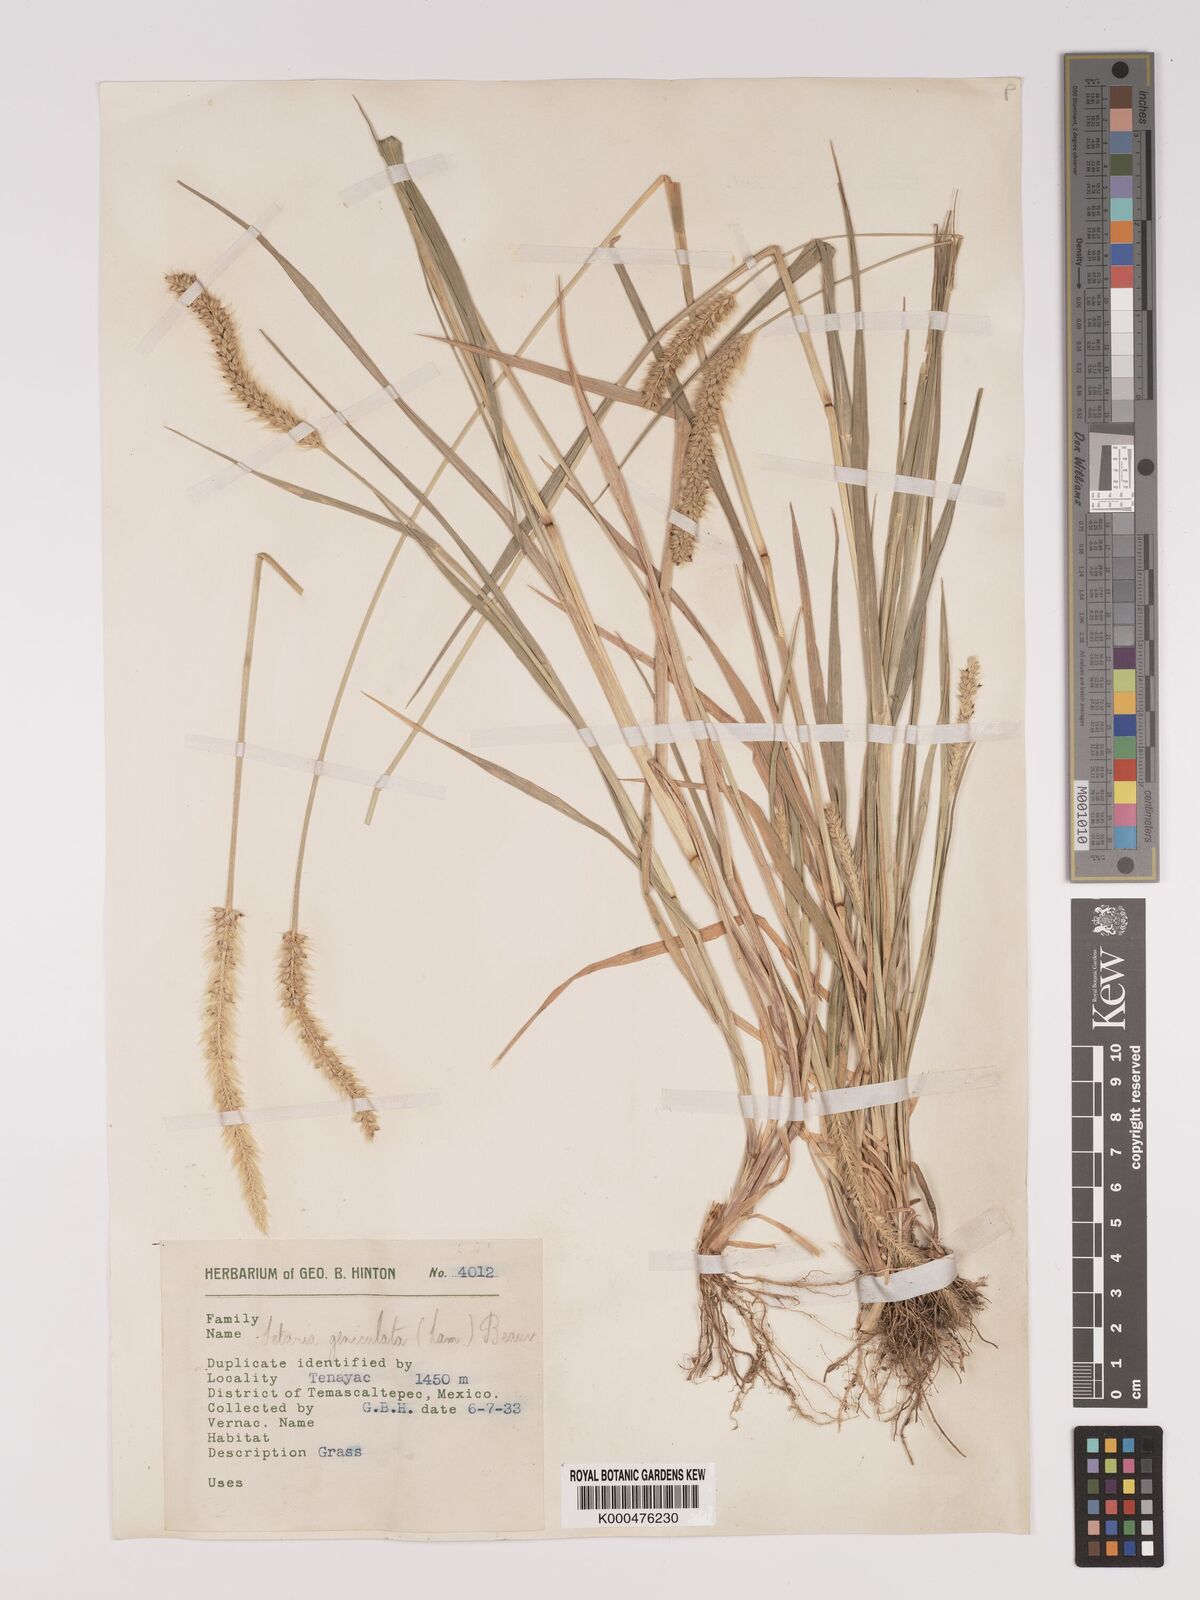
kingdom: Plantae
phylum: Tracheophyta
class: Liliopsida
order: Poales
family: Poaceae
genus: Setaria
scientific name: Setaria
